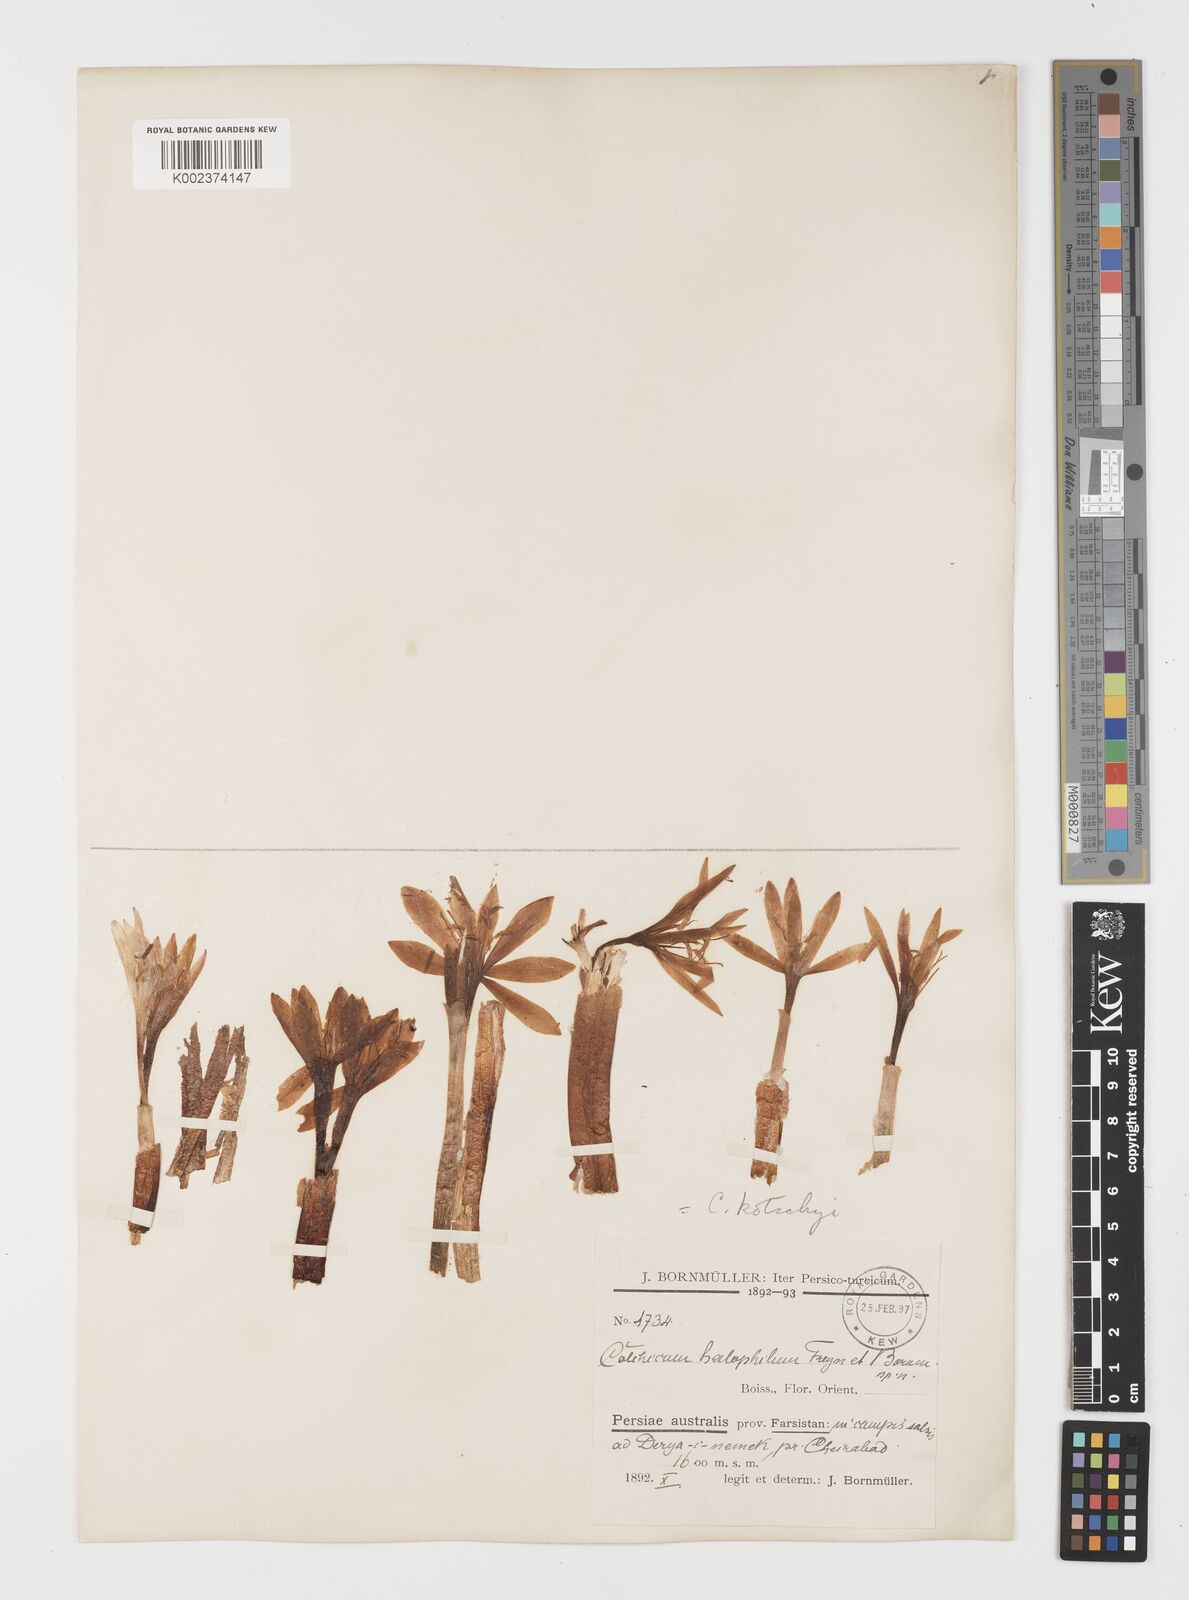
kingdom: Plantae
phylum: Tracheophyta
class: Liliopsida
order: Liliales
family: Colchicaceae
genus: Colchicum
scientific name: Colchicum persicum
